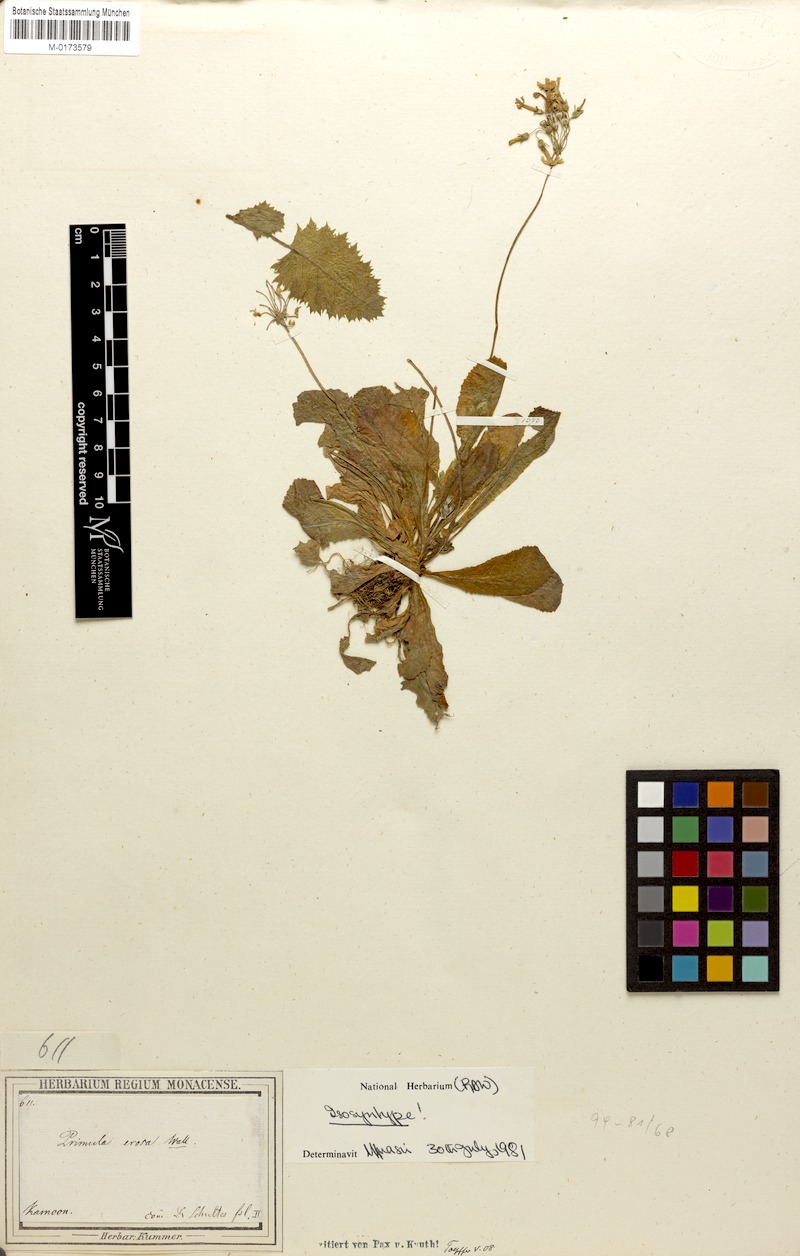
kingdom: Plantae
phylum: Tracheophyta
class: Magnoliopsida
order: Ericales
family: Primulaceae
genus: Primula
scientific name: Primula denticulata
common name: Drumstick primula
